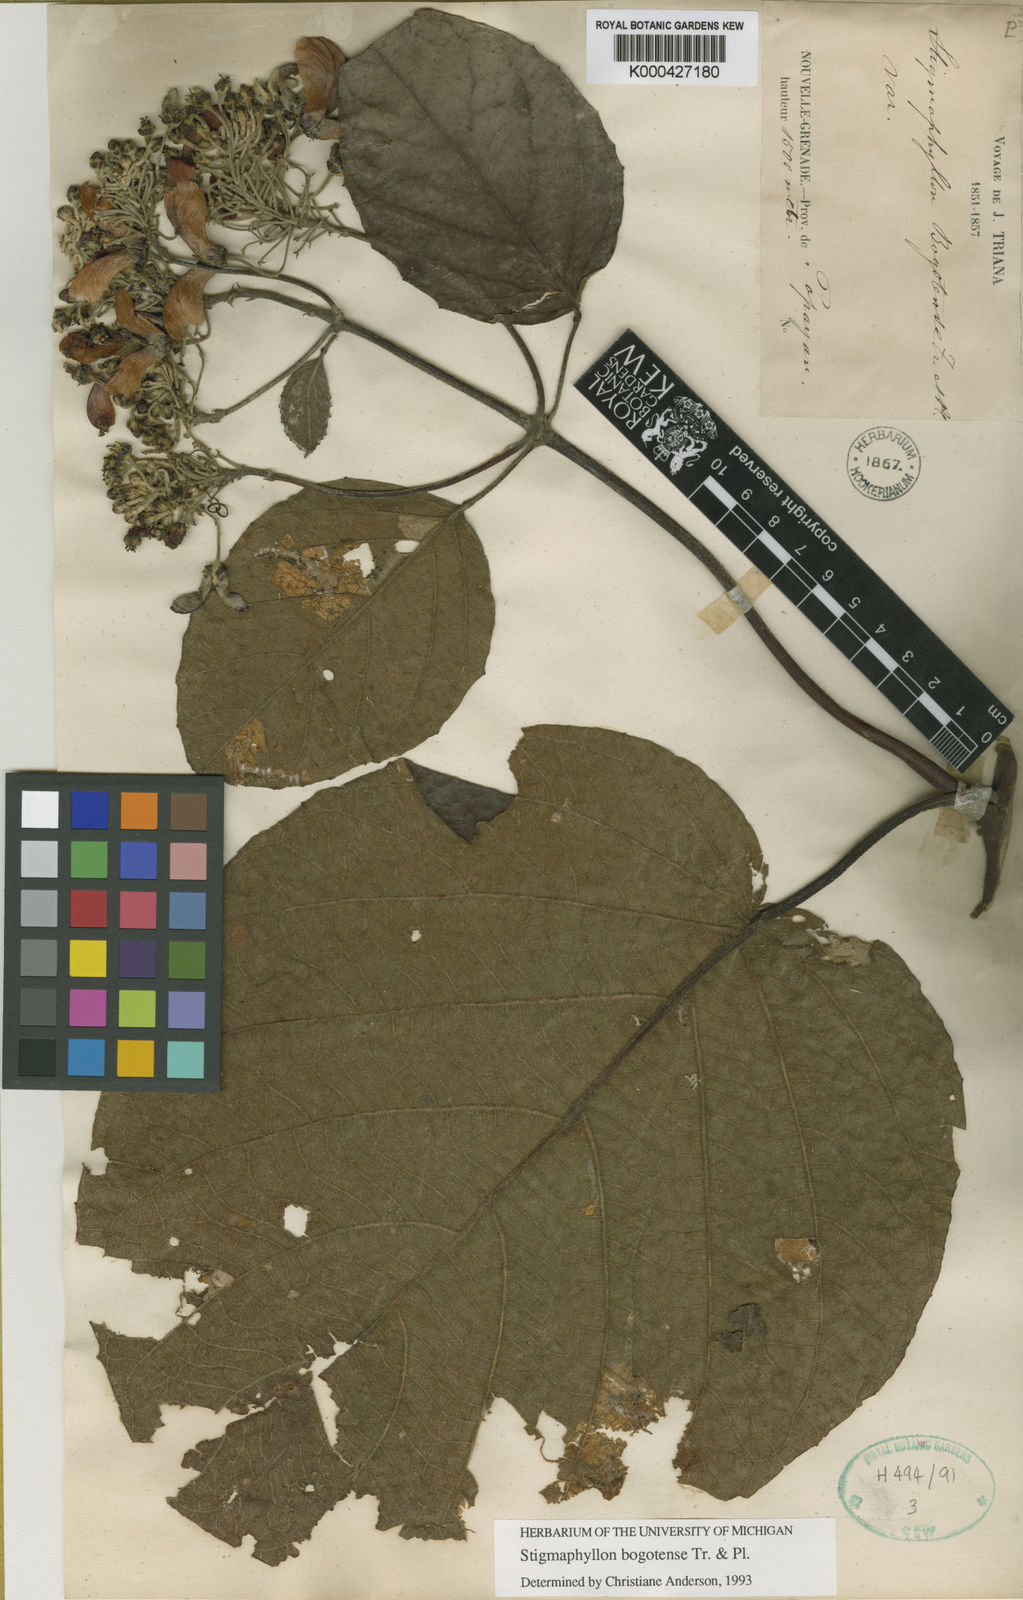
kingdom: Plantae
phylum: Tracheophyta
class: Magnoliopsida
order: Malpighiales
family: Malpighiaceae
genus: Stigmaphyllon
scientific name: Stigmaphyllon bogotense
